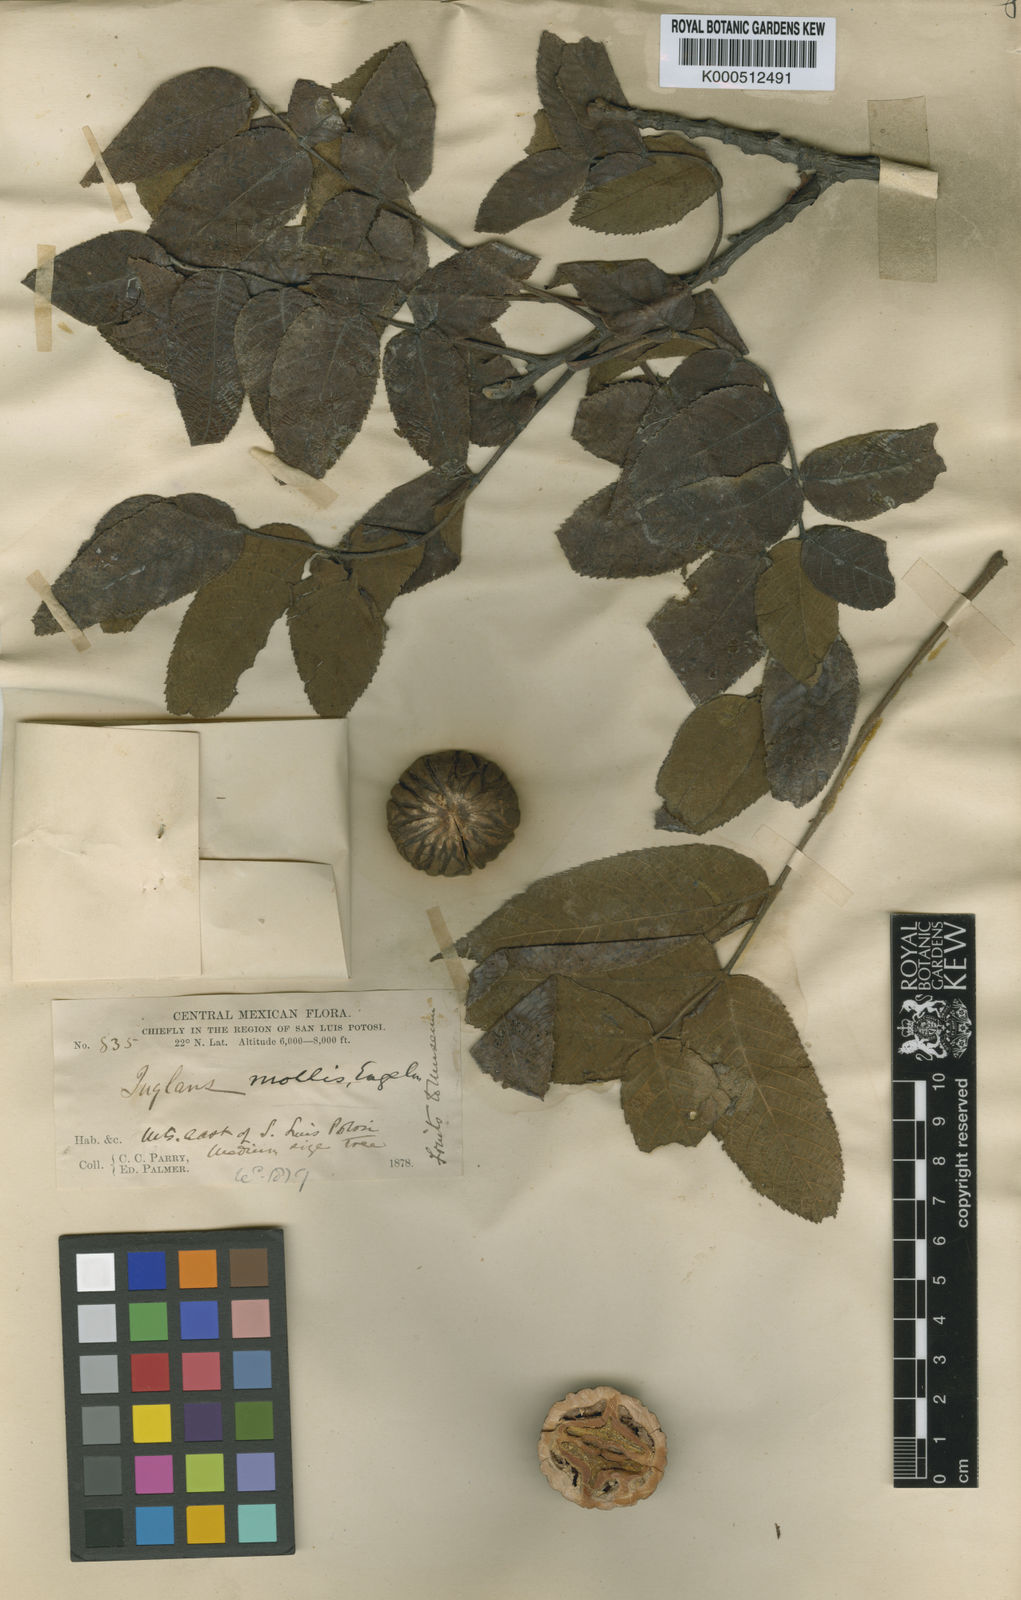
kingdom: Plantae
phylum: Tracheophyta
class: Magnoliopsida
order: Fagales
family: Juglandaceae
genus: Juglans
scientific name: Juglans mollis
